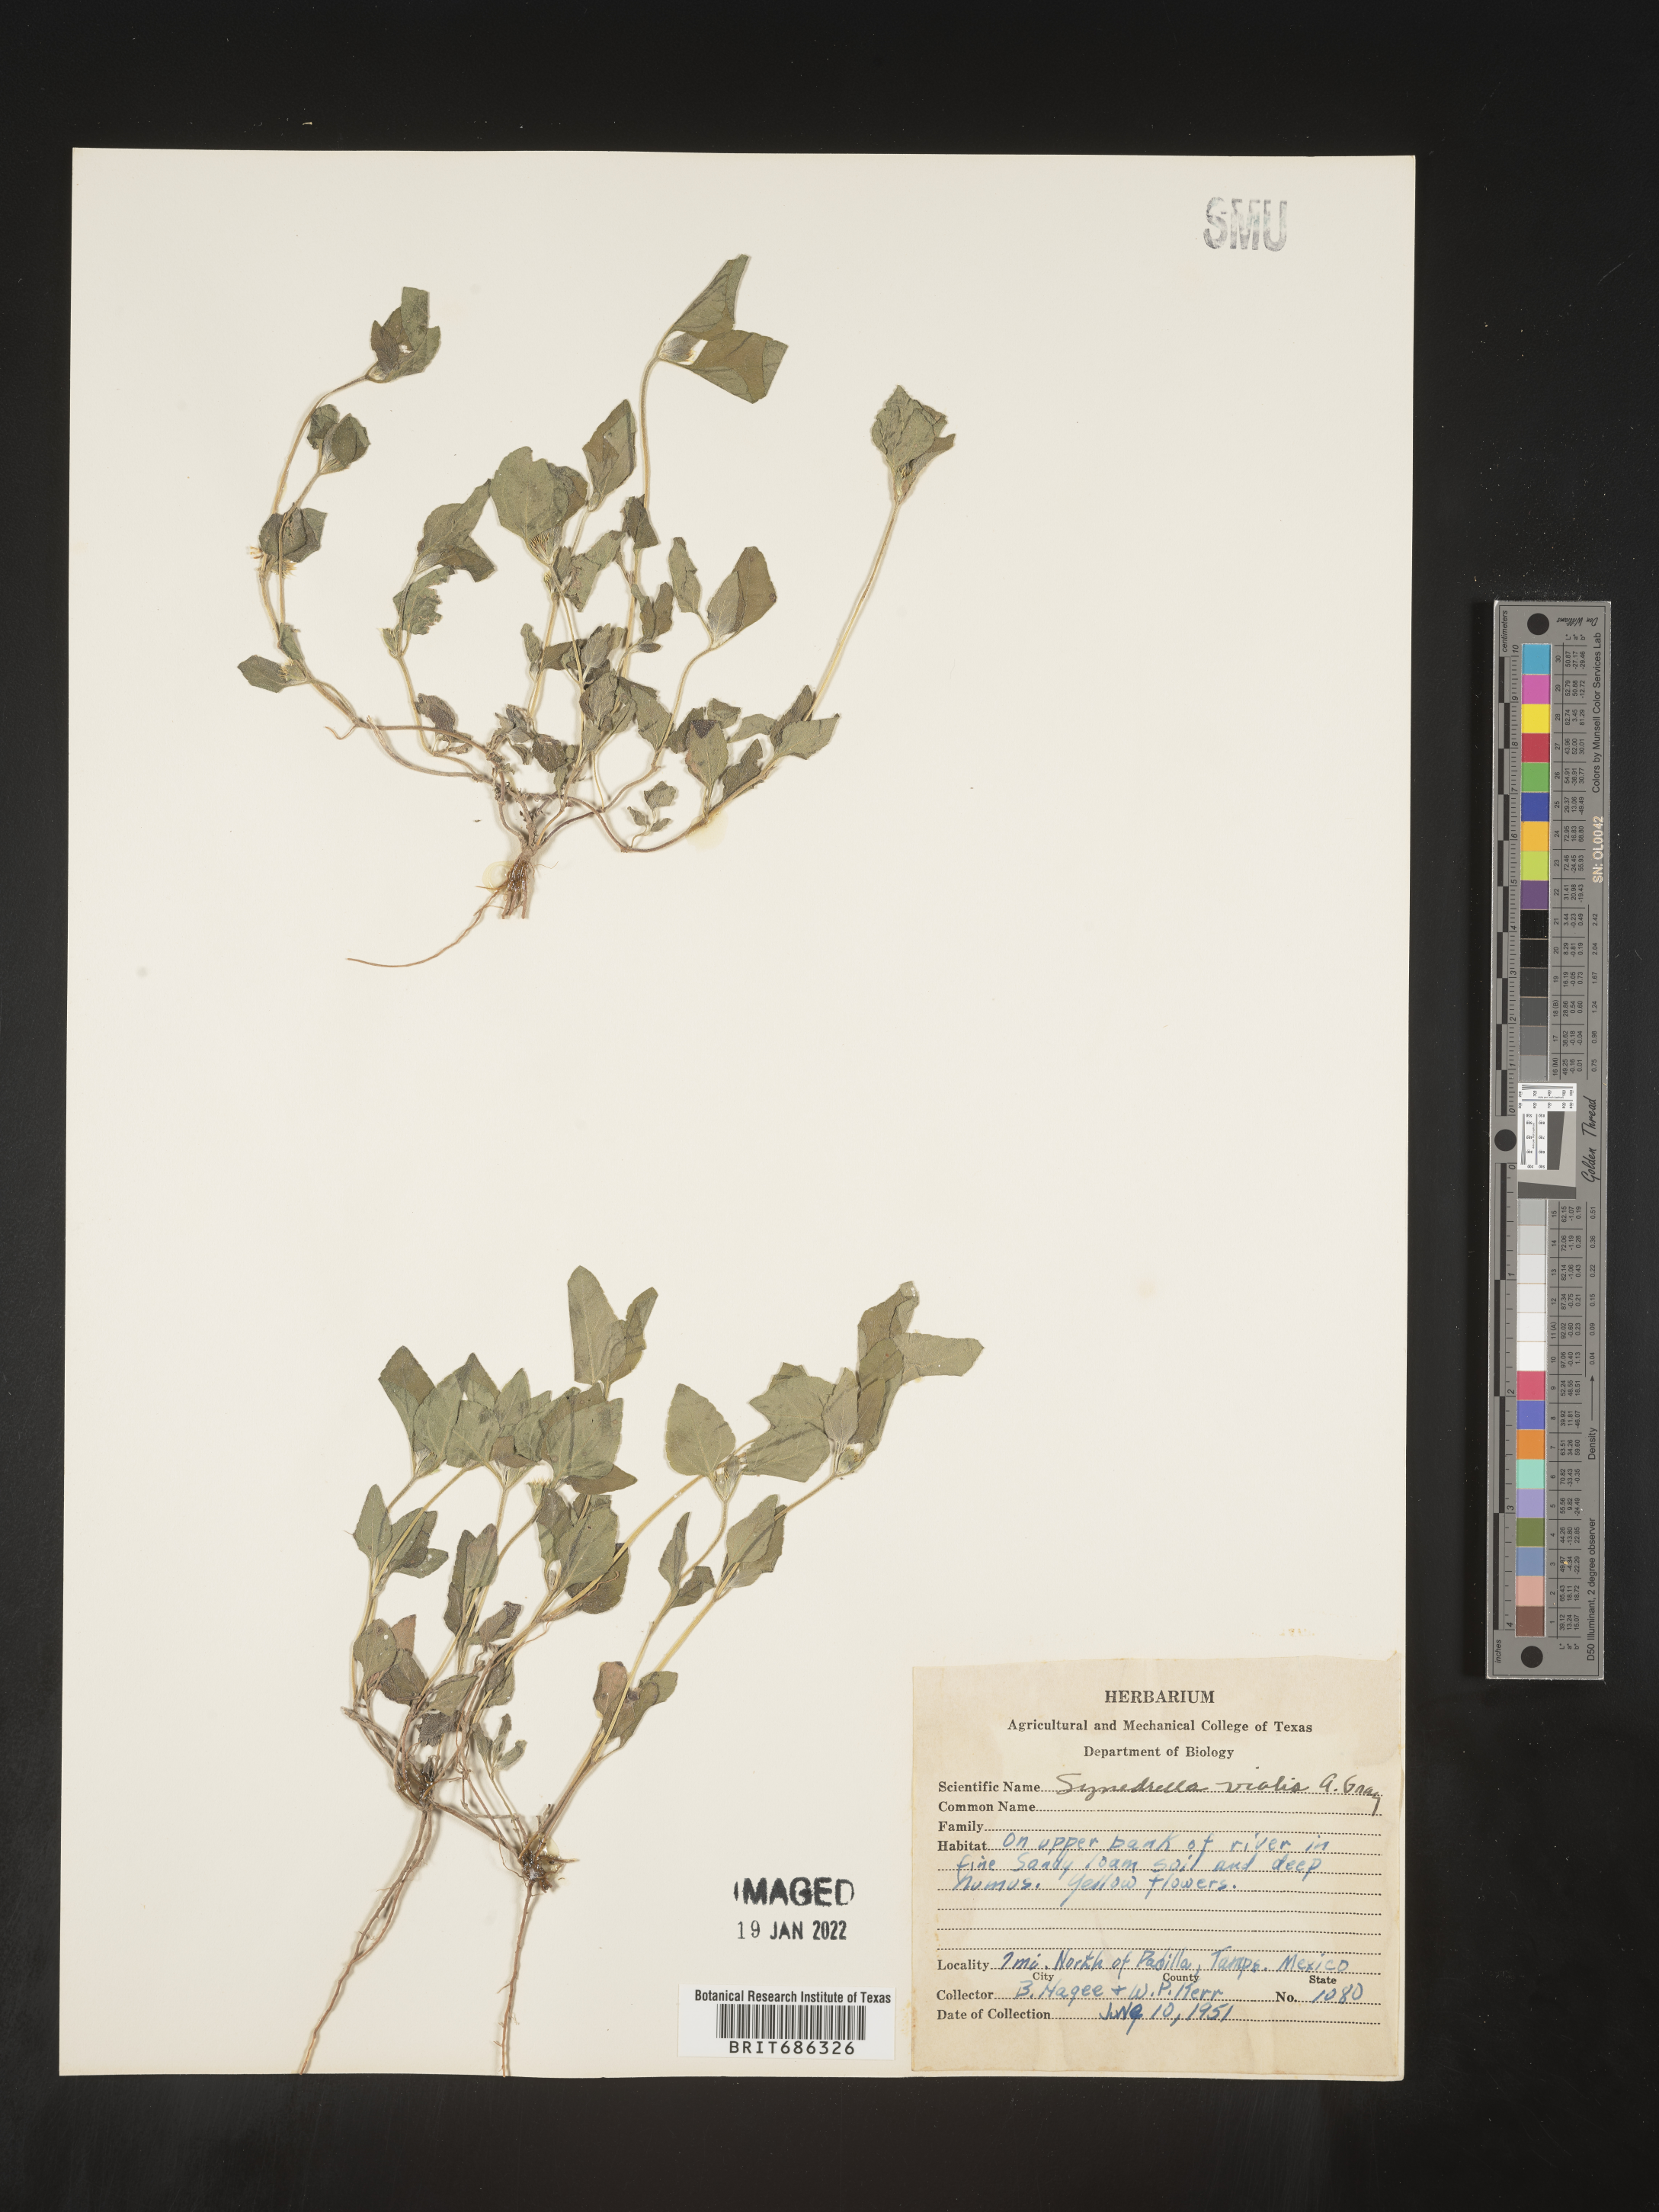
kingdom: Plantae
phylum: Tracheophyta
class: Magnoliopsida
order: Asterales
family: Asteraceae
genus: Calyptocarpus
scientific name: Calyptocarpus
